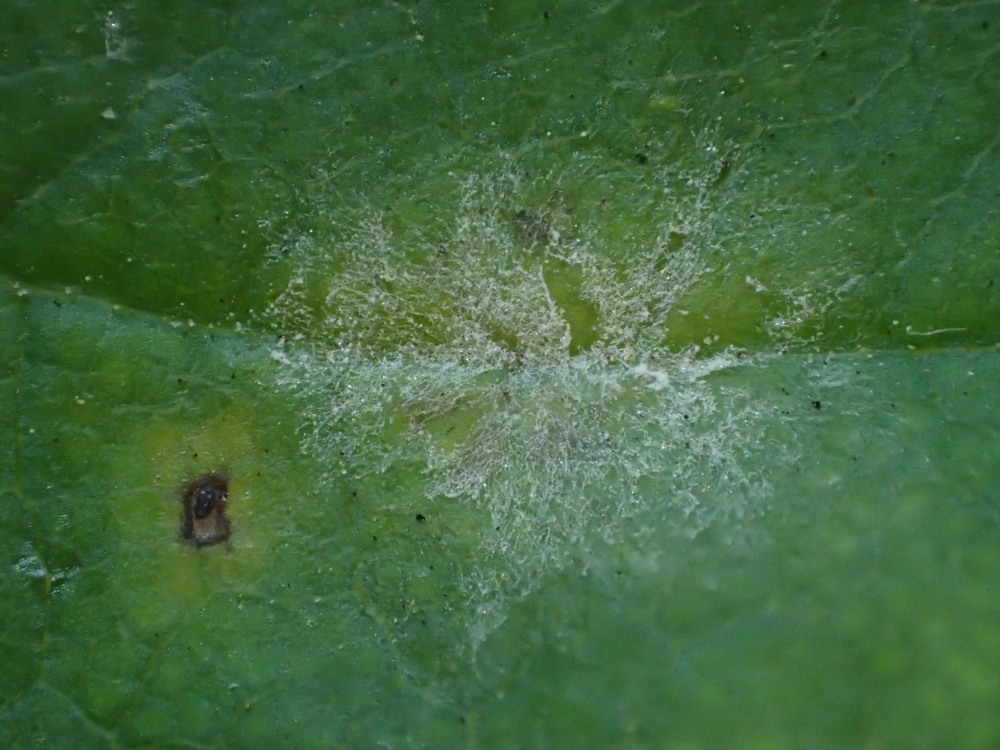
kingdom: Fungi
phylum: Ascomycota
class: Leotiomycetes
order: Helotiales
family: Erysiphaceae
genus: Sawadaea
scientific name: Sawadaea bicornis
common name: Maple mildew
